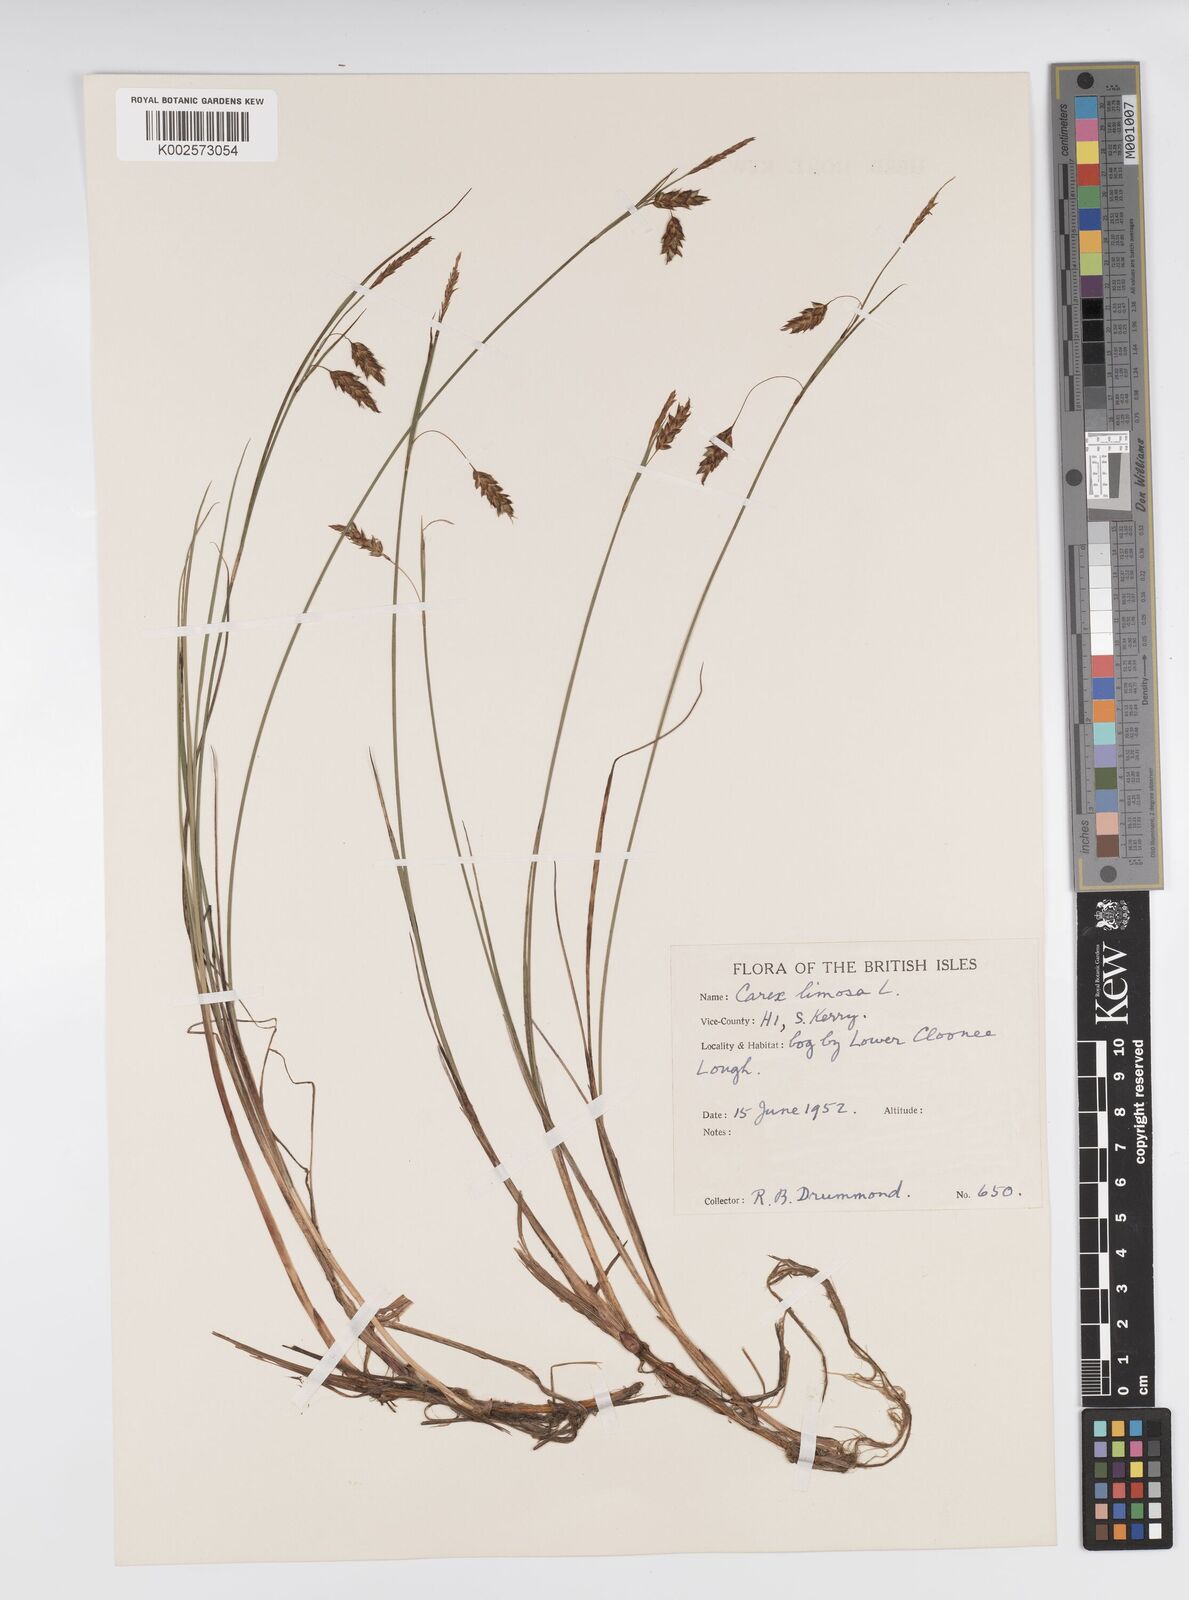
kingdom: Plantae
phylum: Tracheophyta
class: Liliopsida
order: Poales
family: Cyperaceae
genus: Carex
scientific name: Carex limosa
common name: Bog sedge
